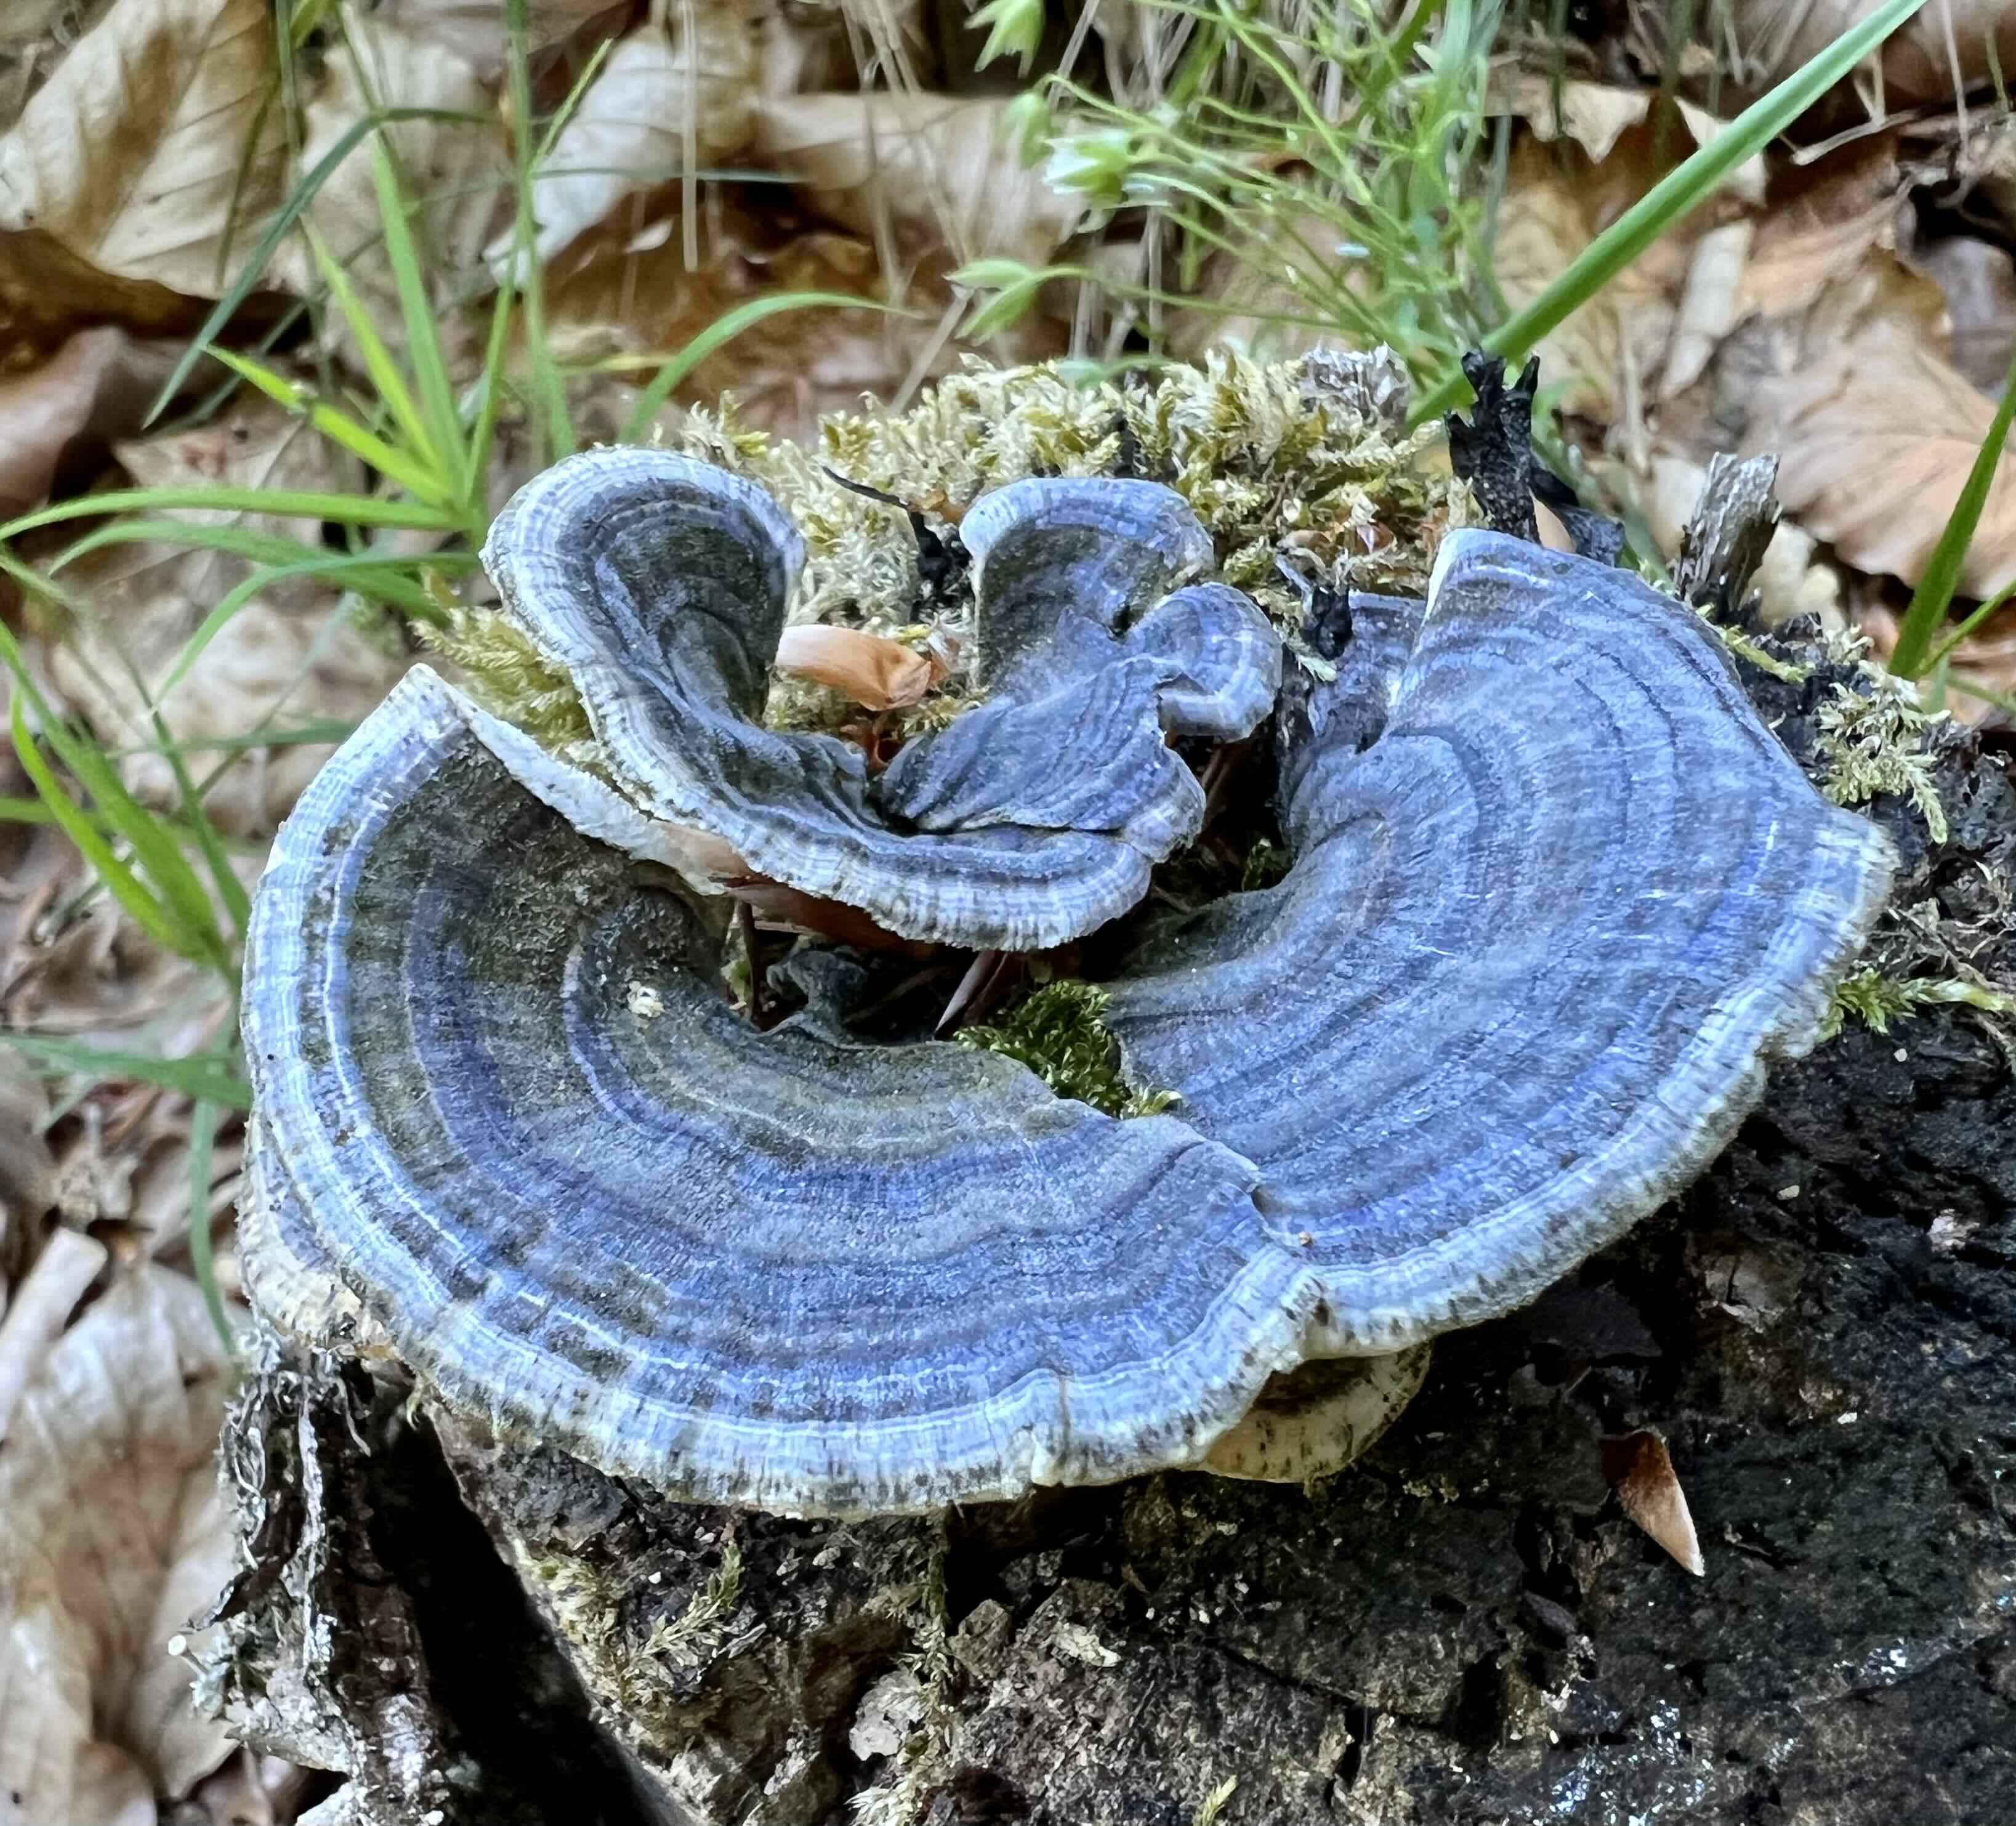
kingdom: Fungi
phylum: Basidiomycota
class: Agaricomycetes
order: Polyporales
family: Polyporaceae
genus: Trametes
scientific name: Trametes versicolor
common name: broget læderporesvamp
